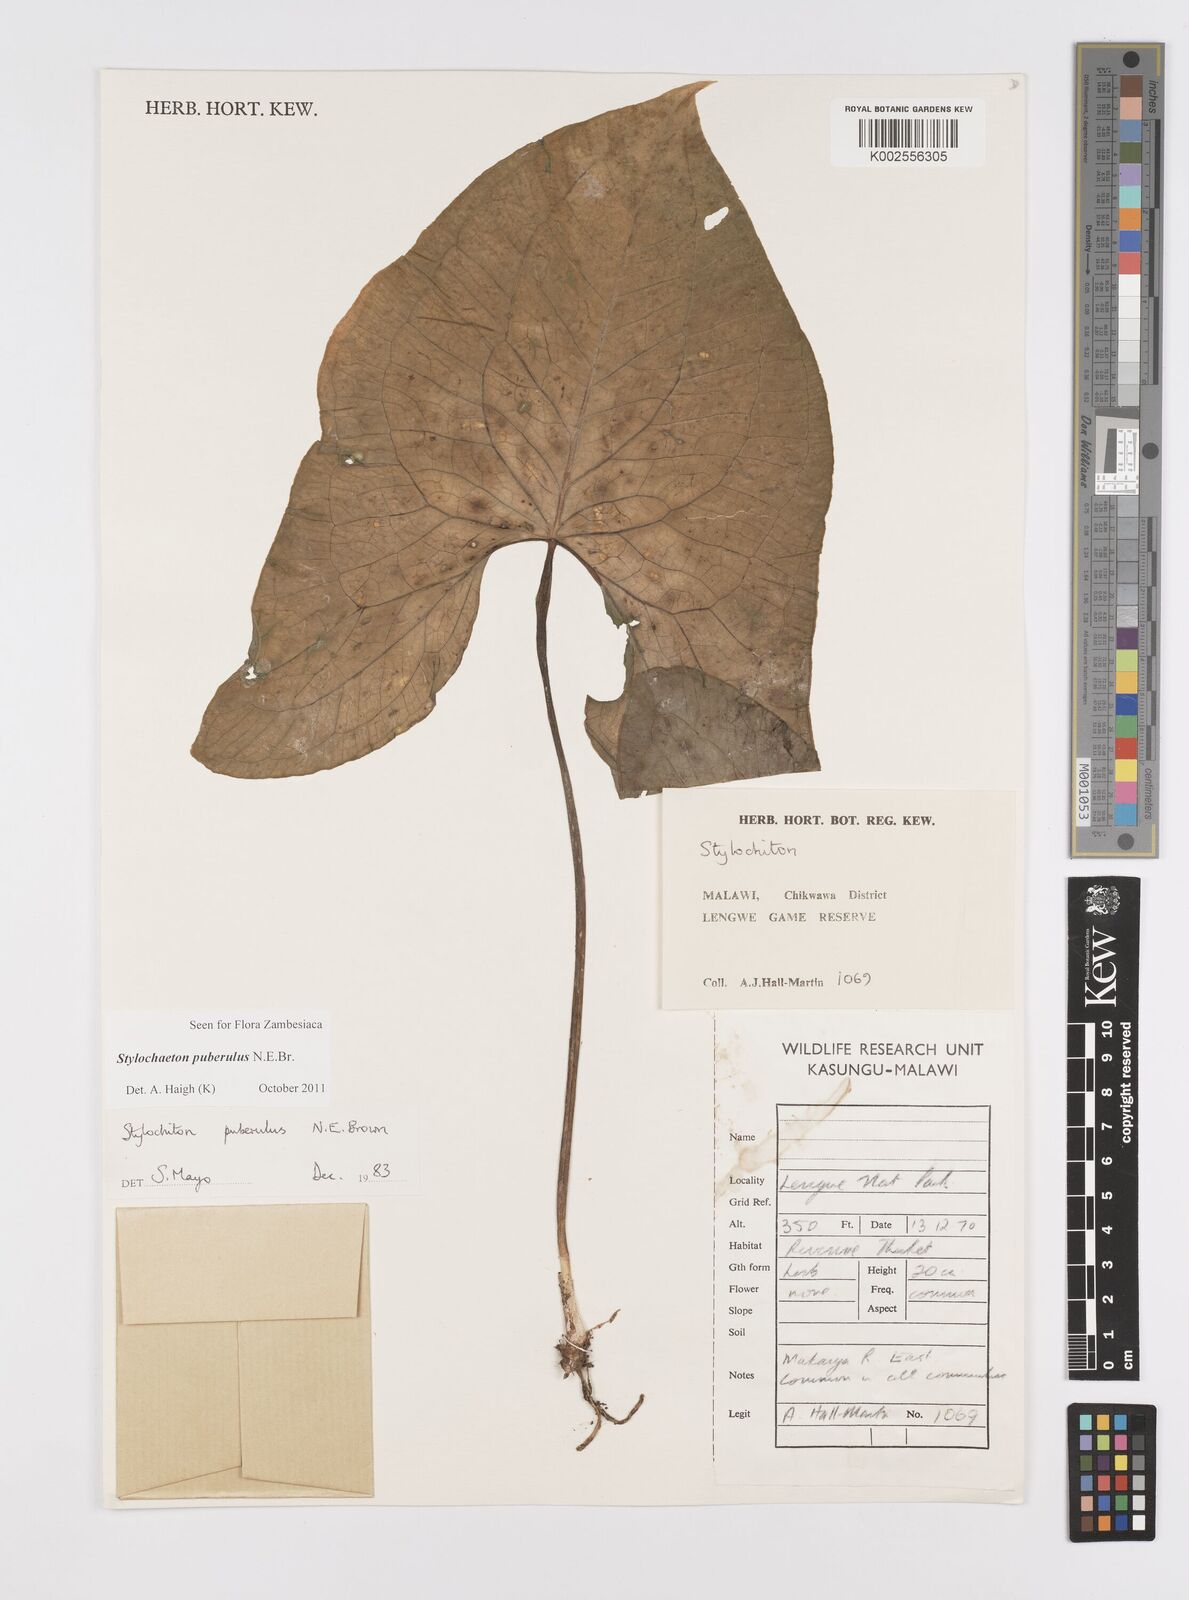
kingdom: Plantae
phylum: Tracheophyta
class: Liliopsida
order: Alismatales
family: Araceae
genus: Stylochaeton
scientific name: Stylochaeton puberulum
